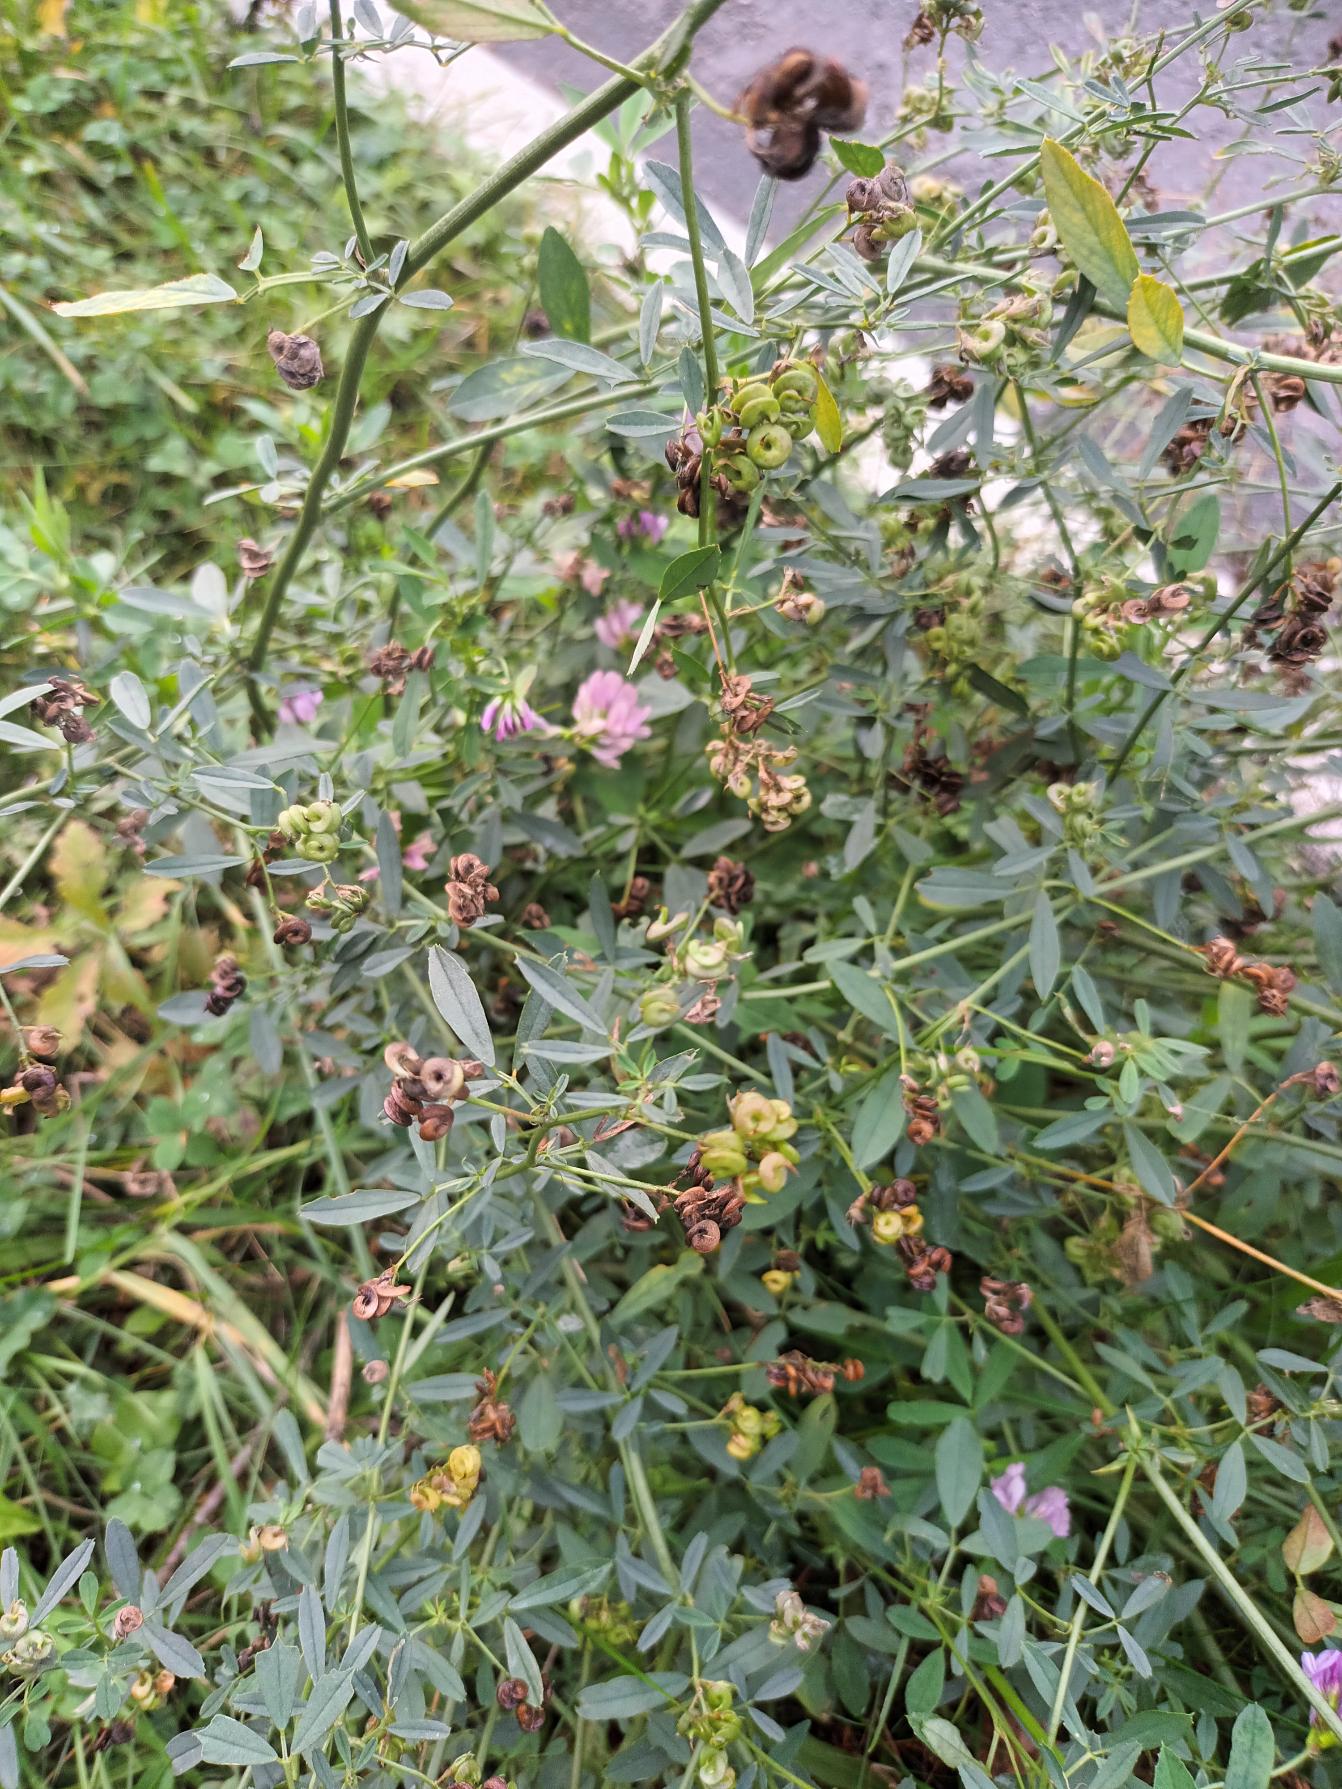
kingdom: Plantae
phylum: Tracheophyta
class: Magnoliopsida
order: Fabales
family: Fabaceae
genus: Medicago
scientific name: Medicago sativa
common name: Lucerne
